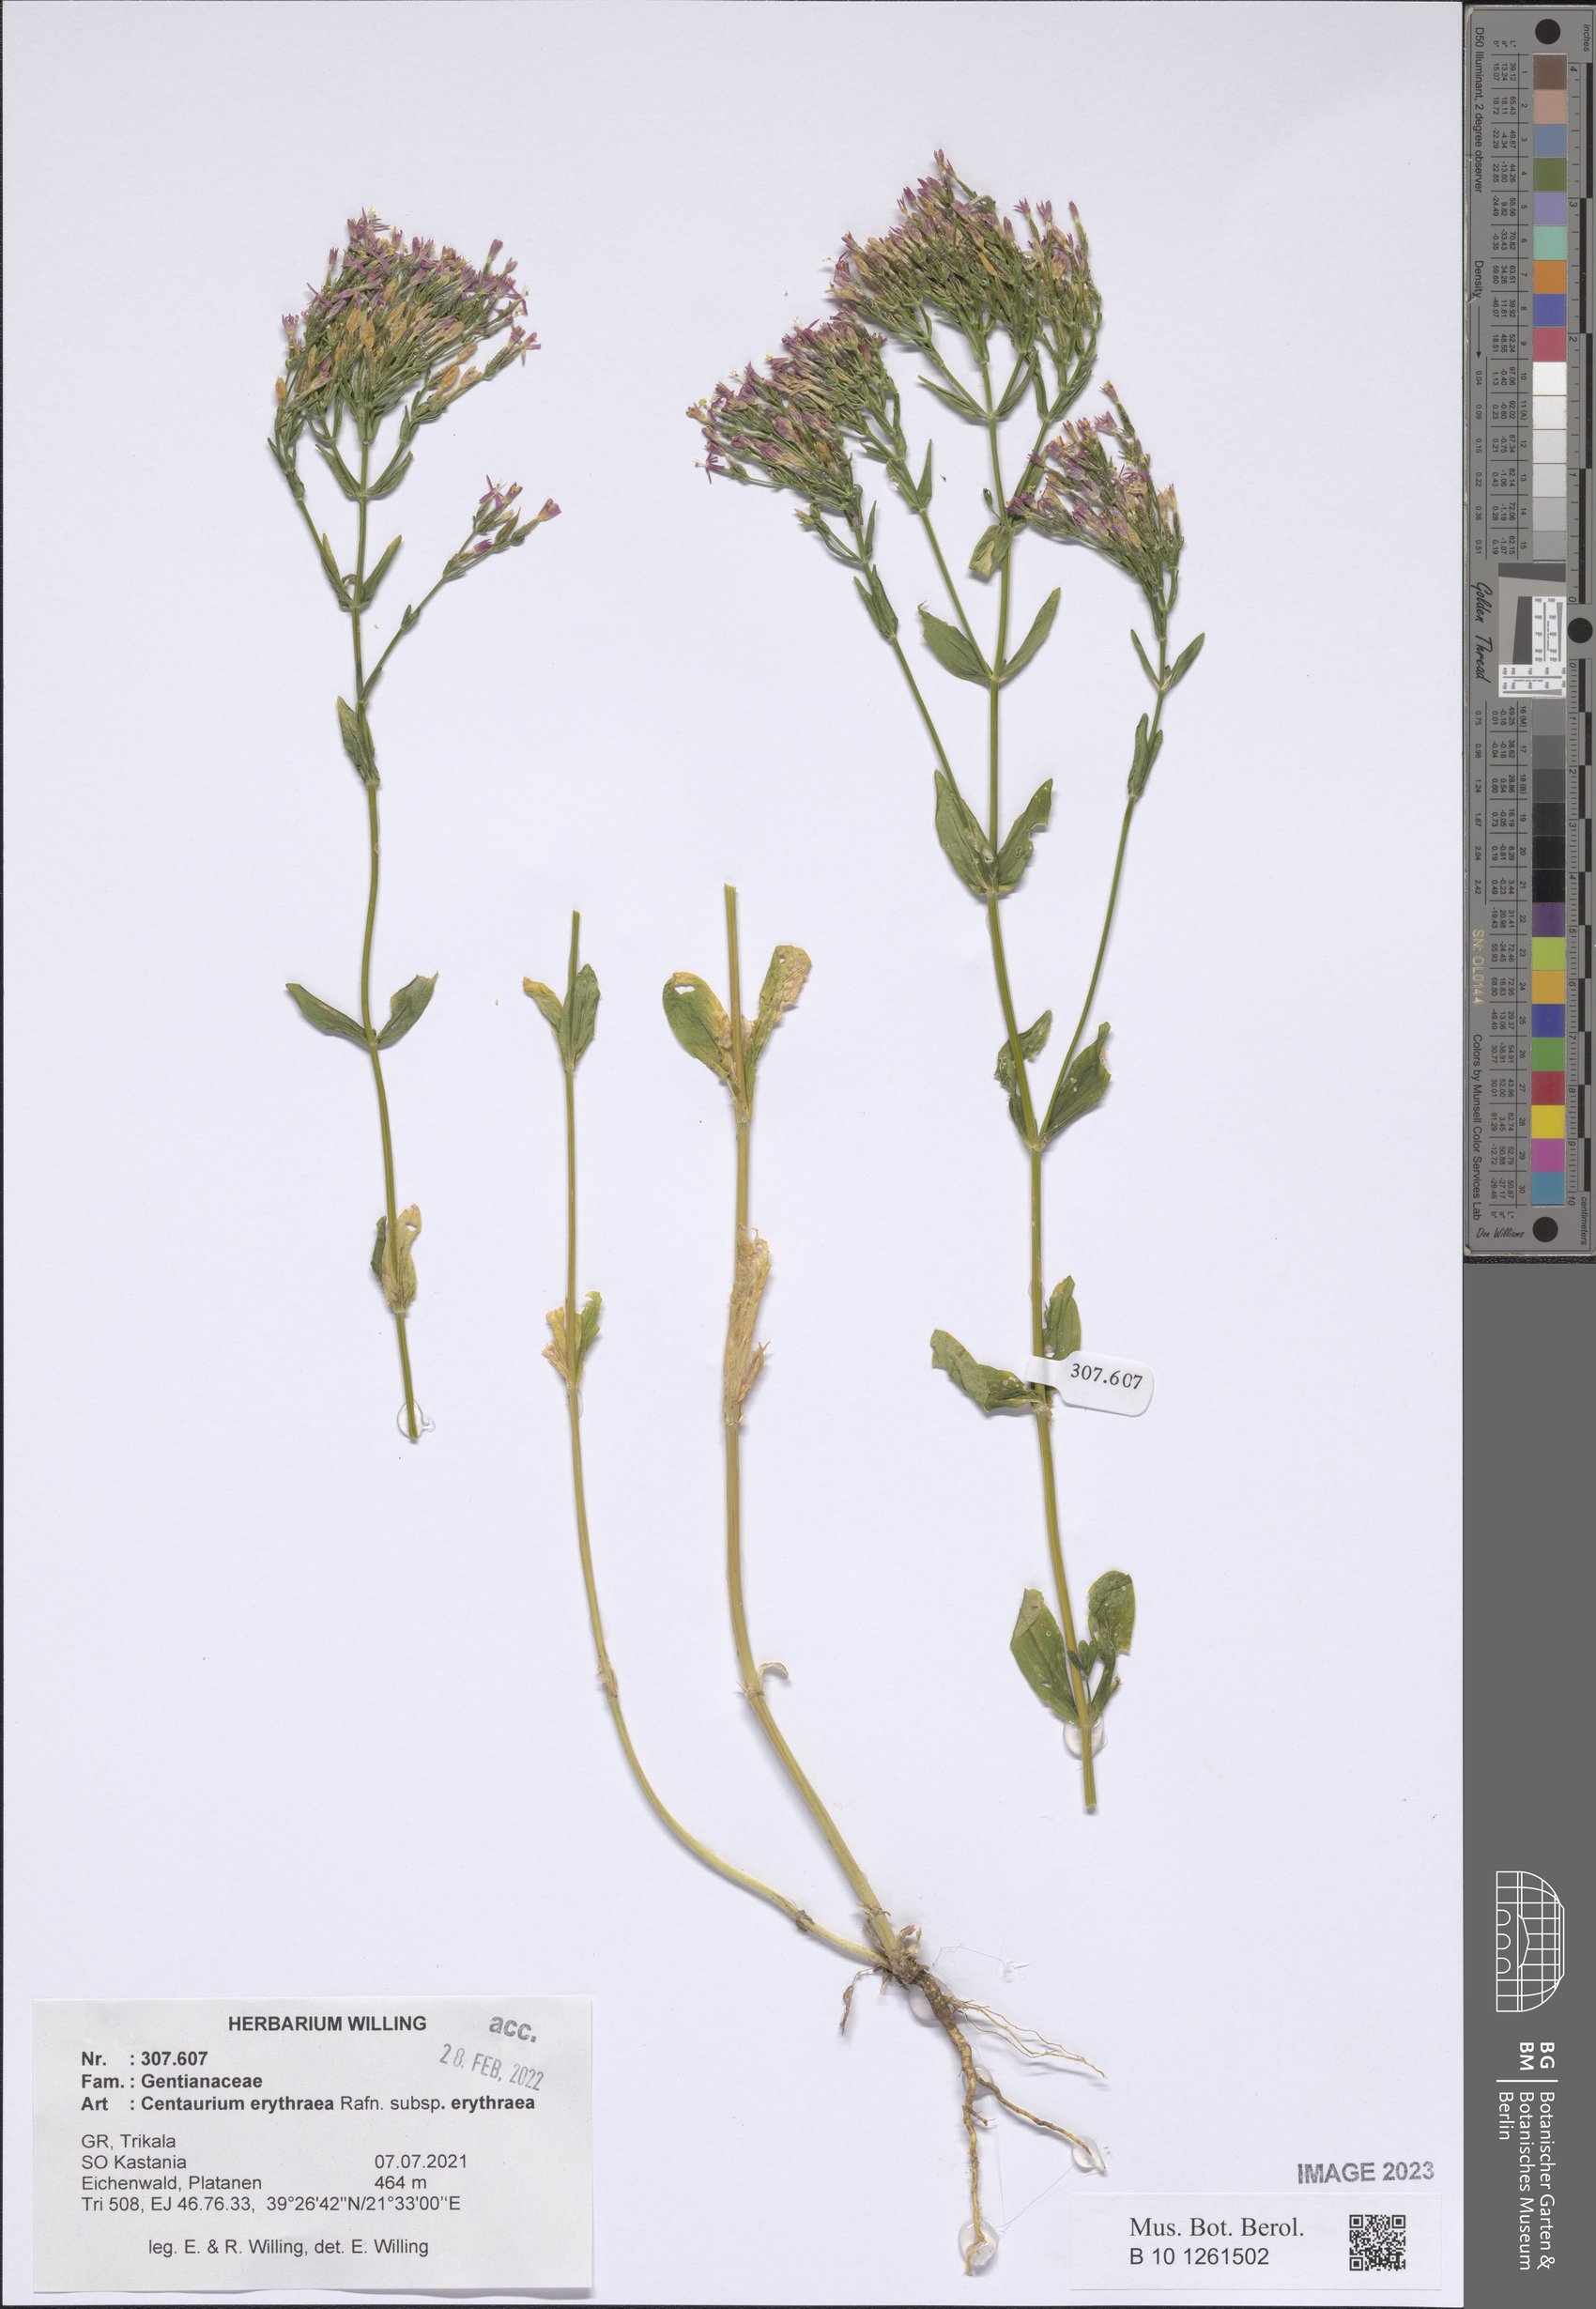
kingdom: Plantae
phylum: Tracheophyta
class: Magnoliopsida
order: Gentianales
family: Gentianaceae
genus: Centaurium
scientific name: Centaurium erythraea
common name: Common centaury
